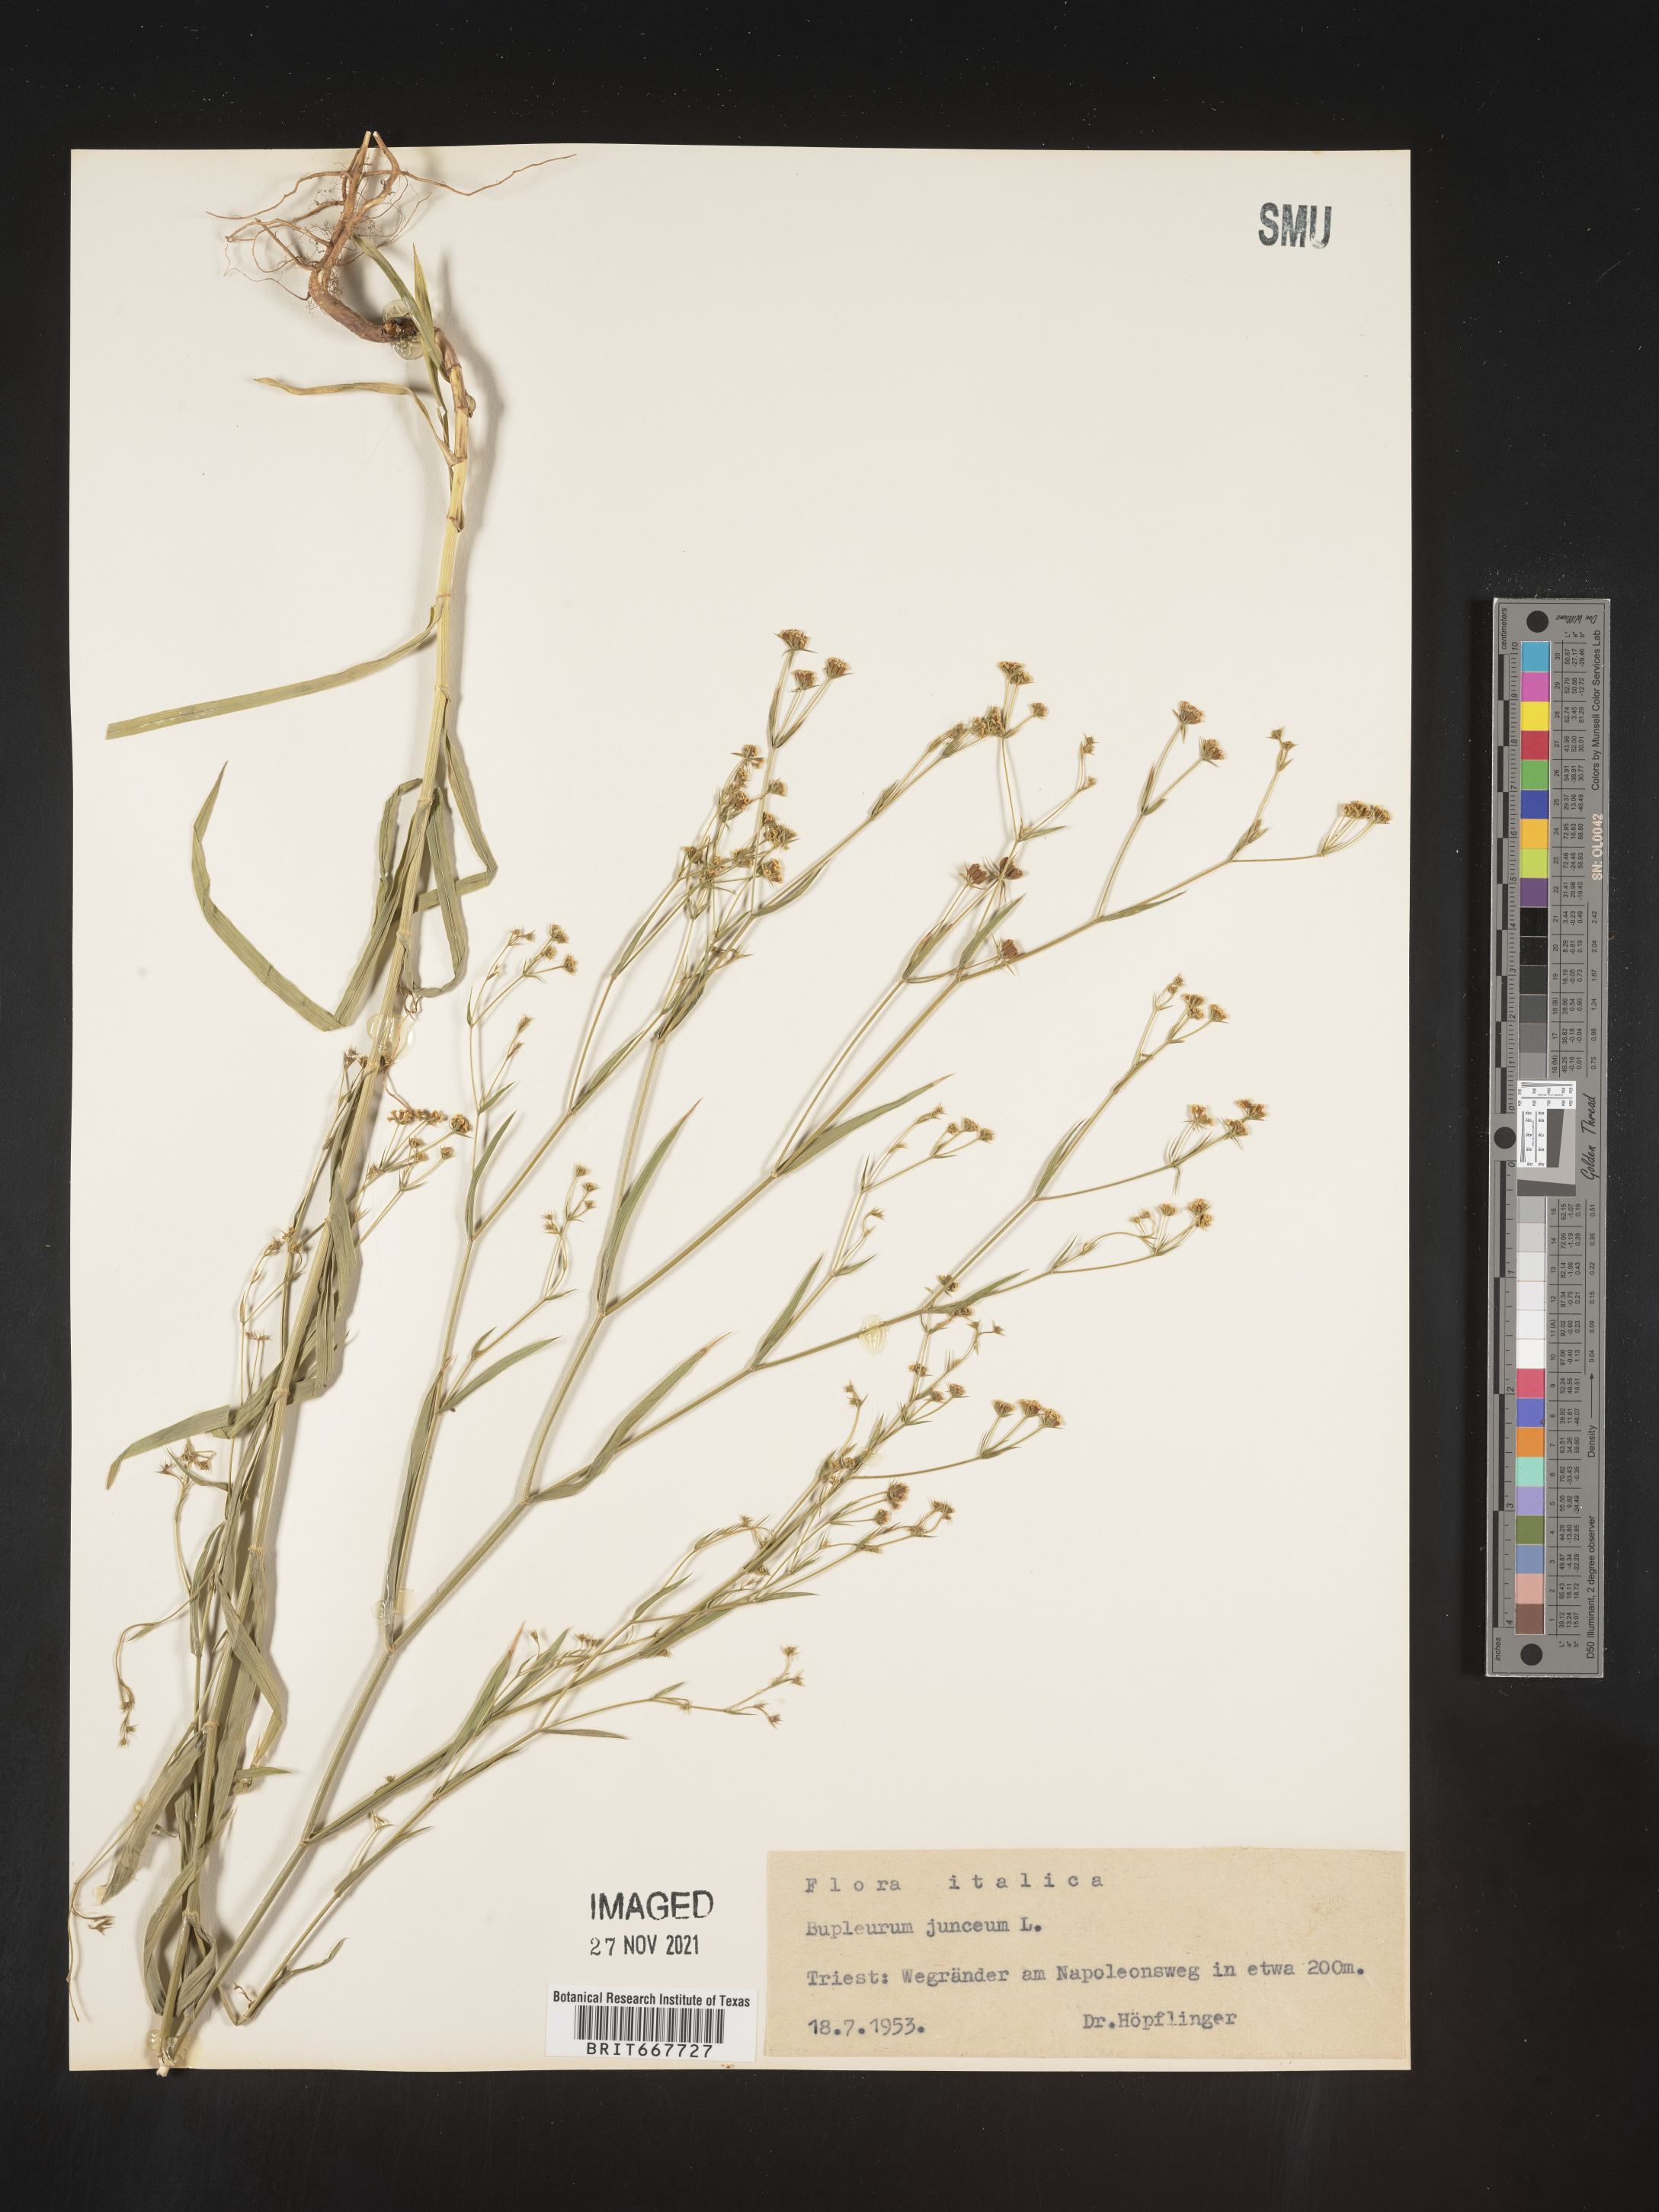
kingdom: Plantae
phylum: Tracheophyta
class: Magnoliopsida
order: Apiales
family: Apiaceae
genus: Bupleurum
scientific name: Bupleurum
